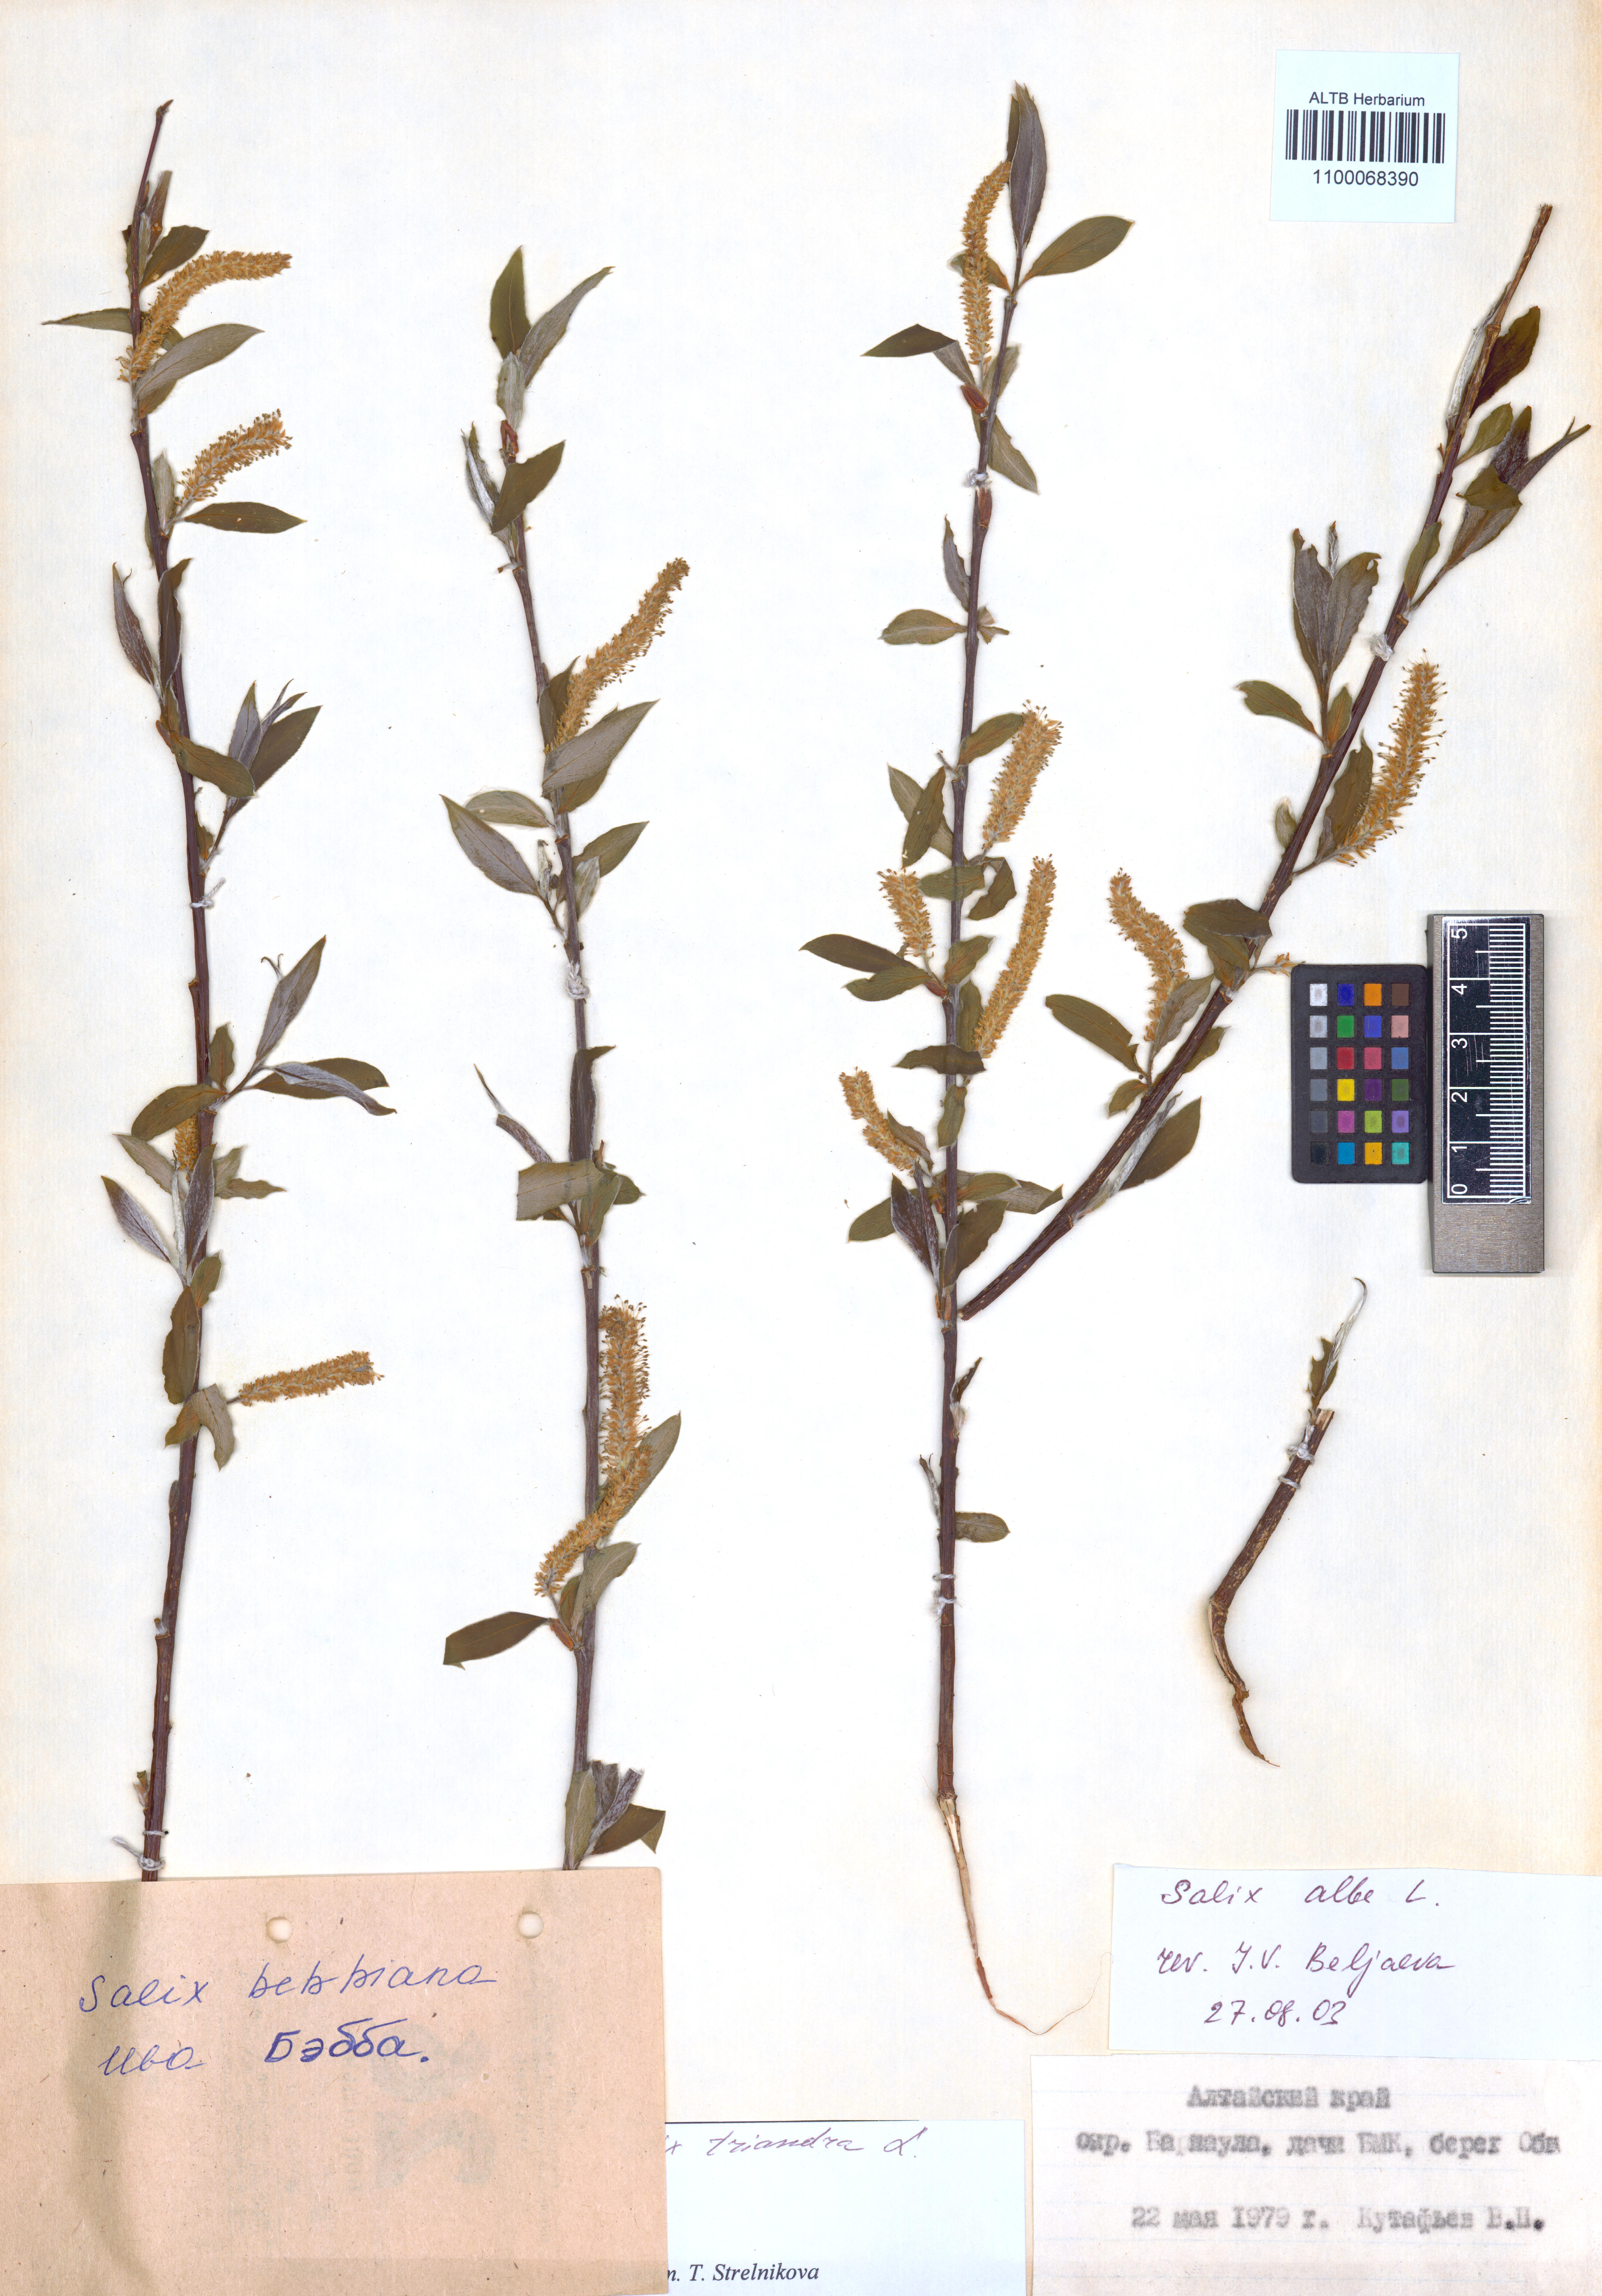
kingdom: Plantae
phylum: Tracheophyta
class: Magnoliopsida
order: Malpighiales
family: Salicaceae
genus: Salix
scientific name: Salix alba
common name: White willow
